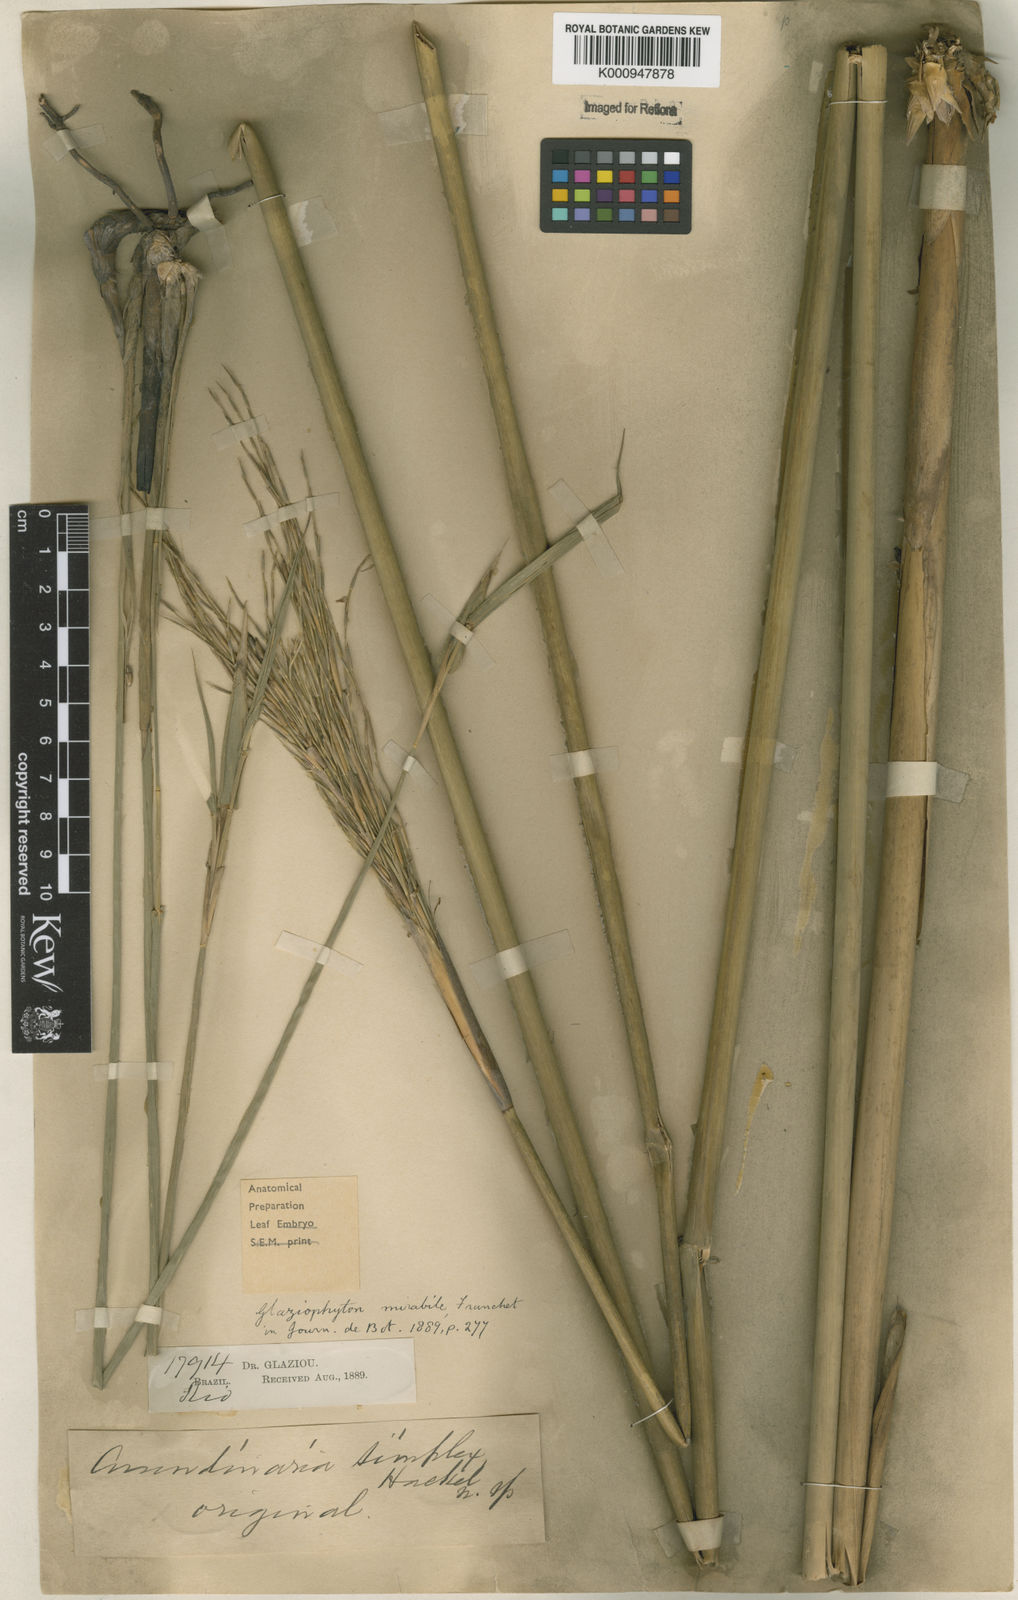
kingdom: Plantae
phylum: Tracheophyta
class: Liliopsida
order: Poales
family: Poaceae
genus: Glaziophyton
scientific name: Glaziophyton mirabile
